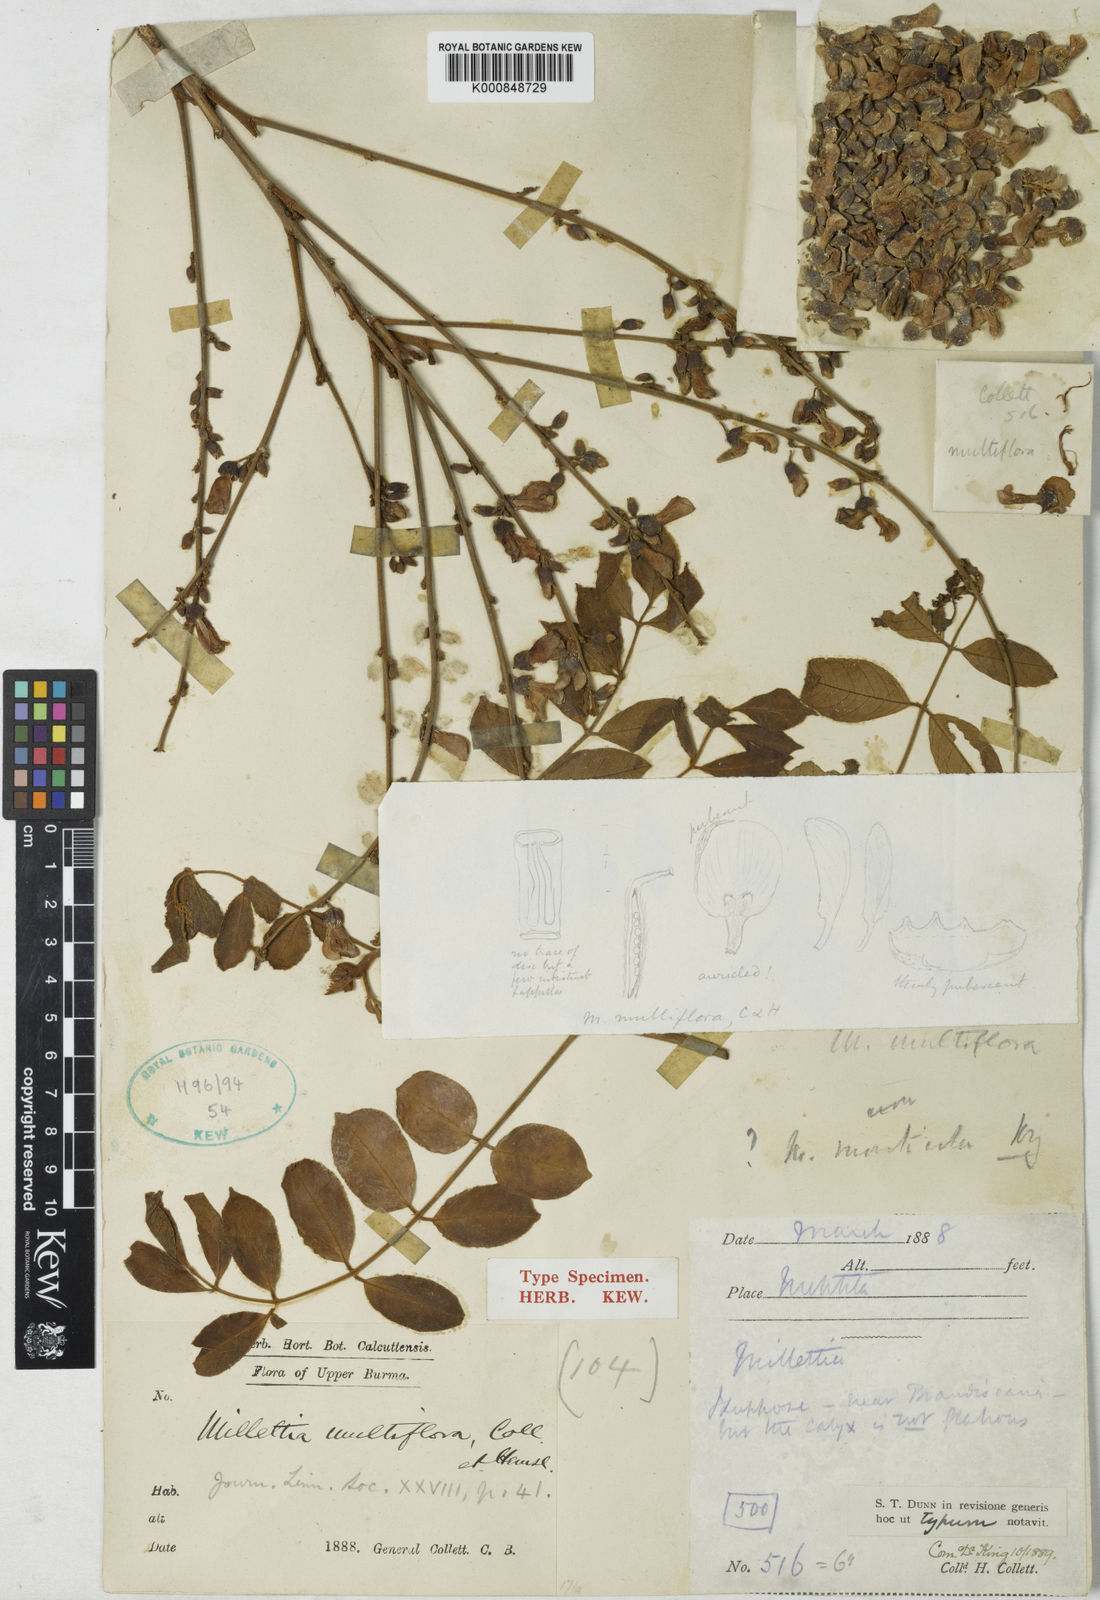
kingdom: Plantae
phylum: Tracheophyta
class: Magnoliopsida
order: Fabales
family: Fabaceae
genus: Millettia
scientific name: Millettia brandisiana
